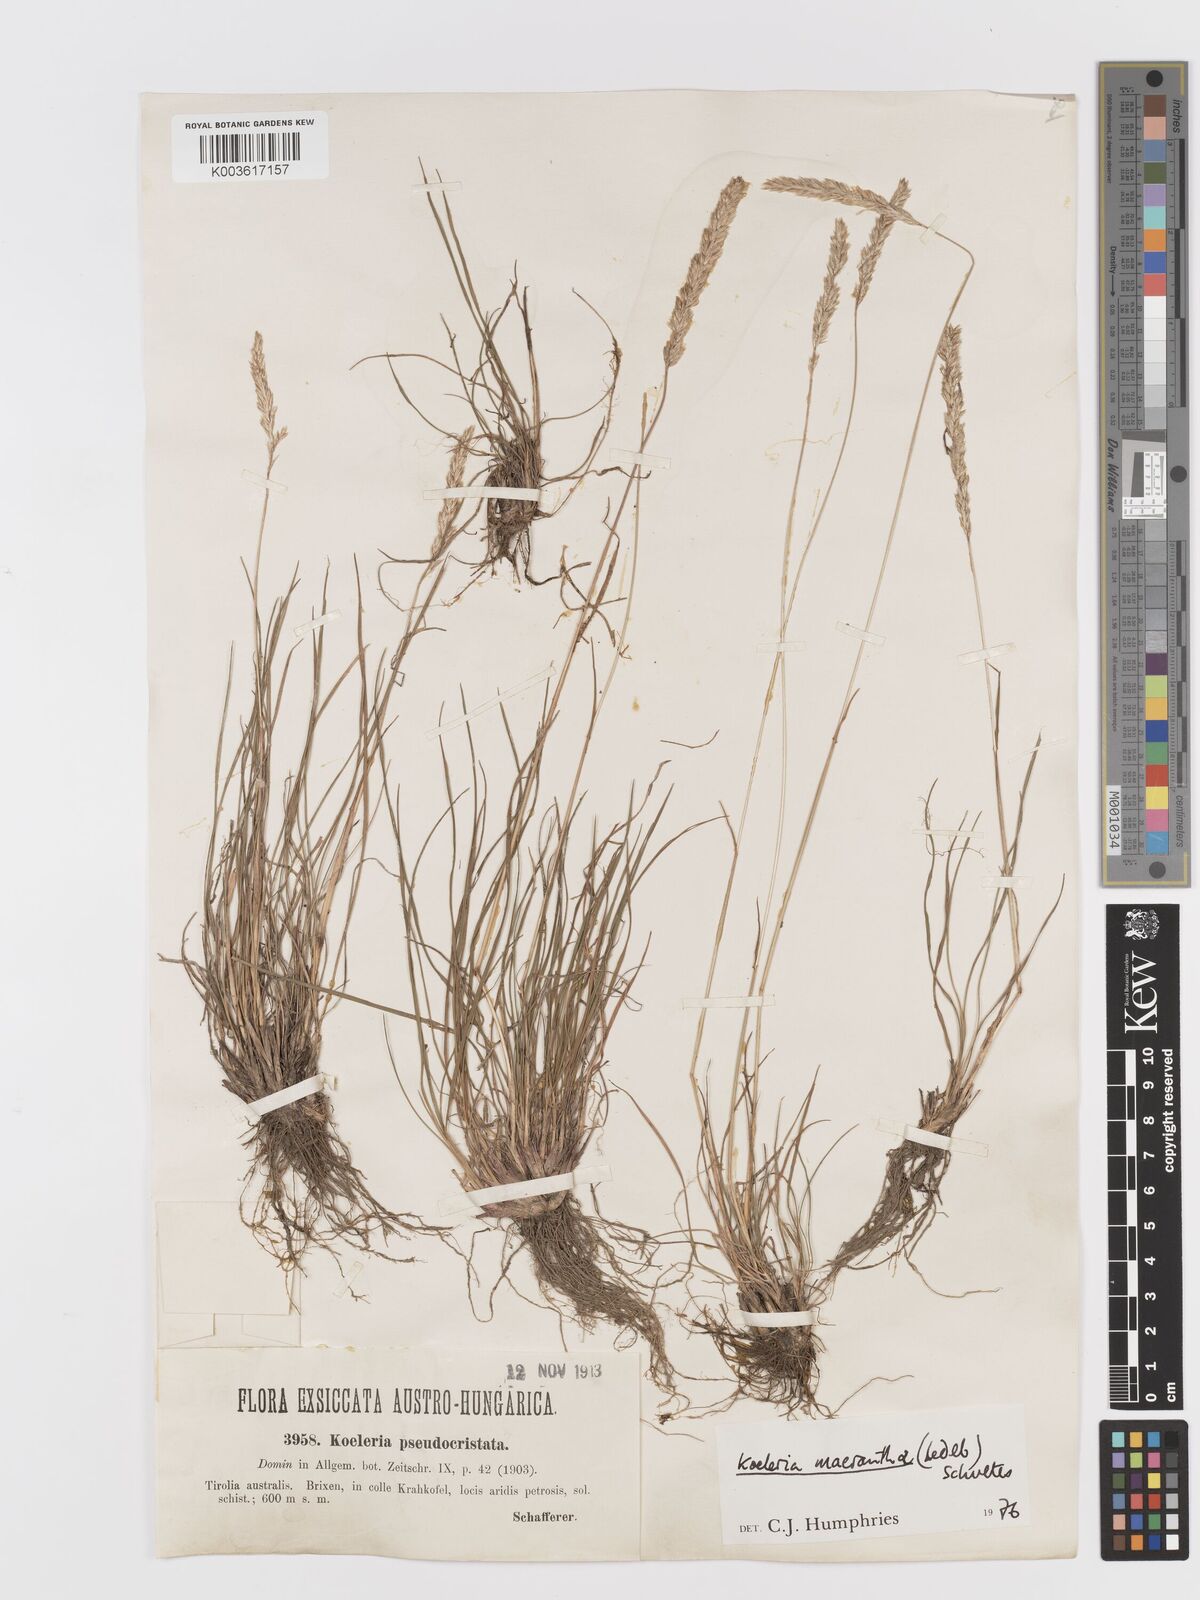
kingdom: Plantae
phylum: Tracheophyta
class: Liliopsida
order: Poales
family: Poaceae
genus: Koeleria
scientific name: Koeleria macrantha
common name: Crested hair-grass
